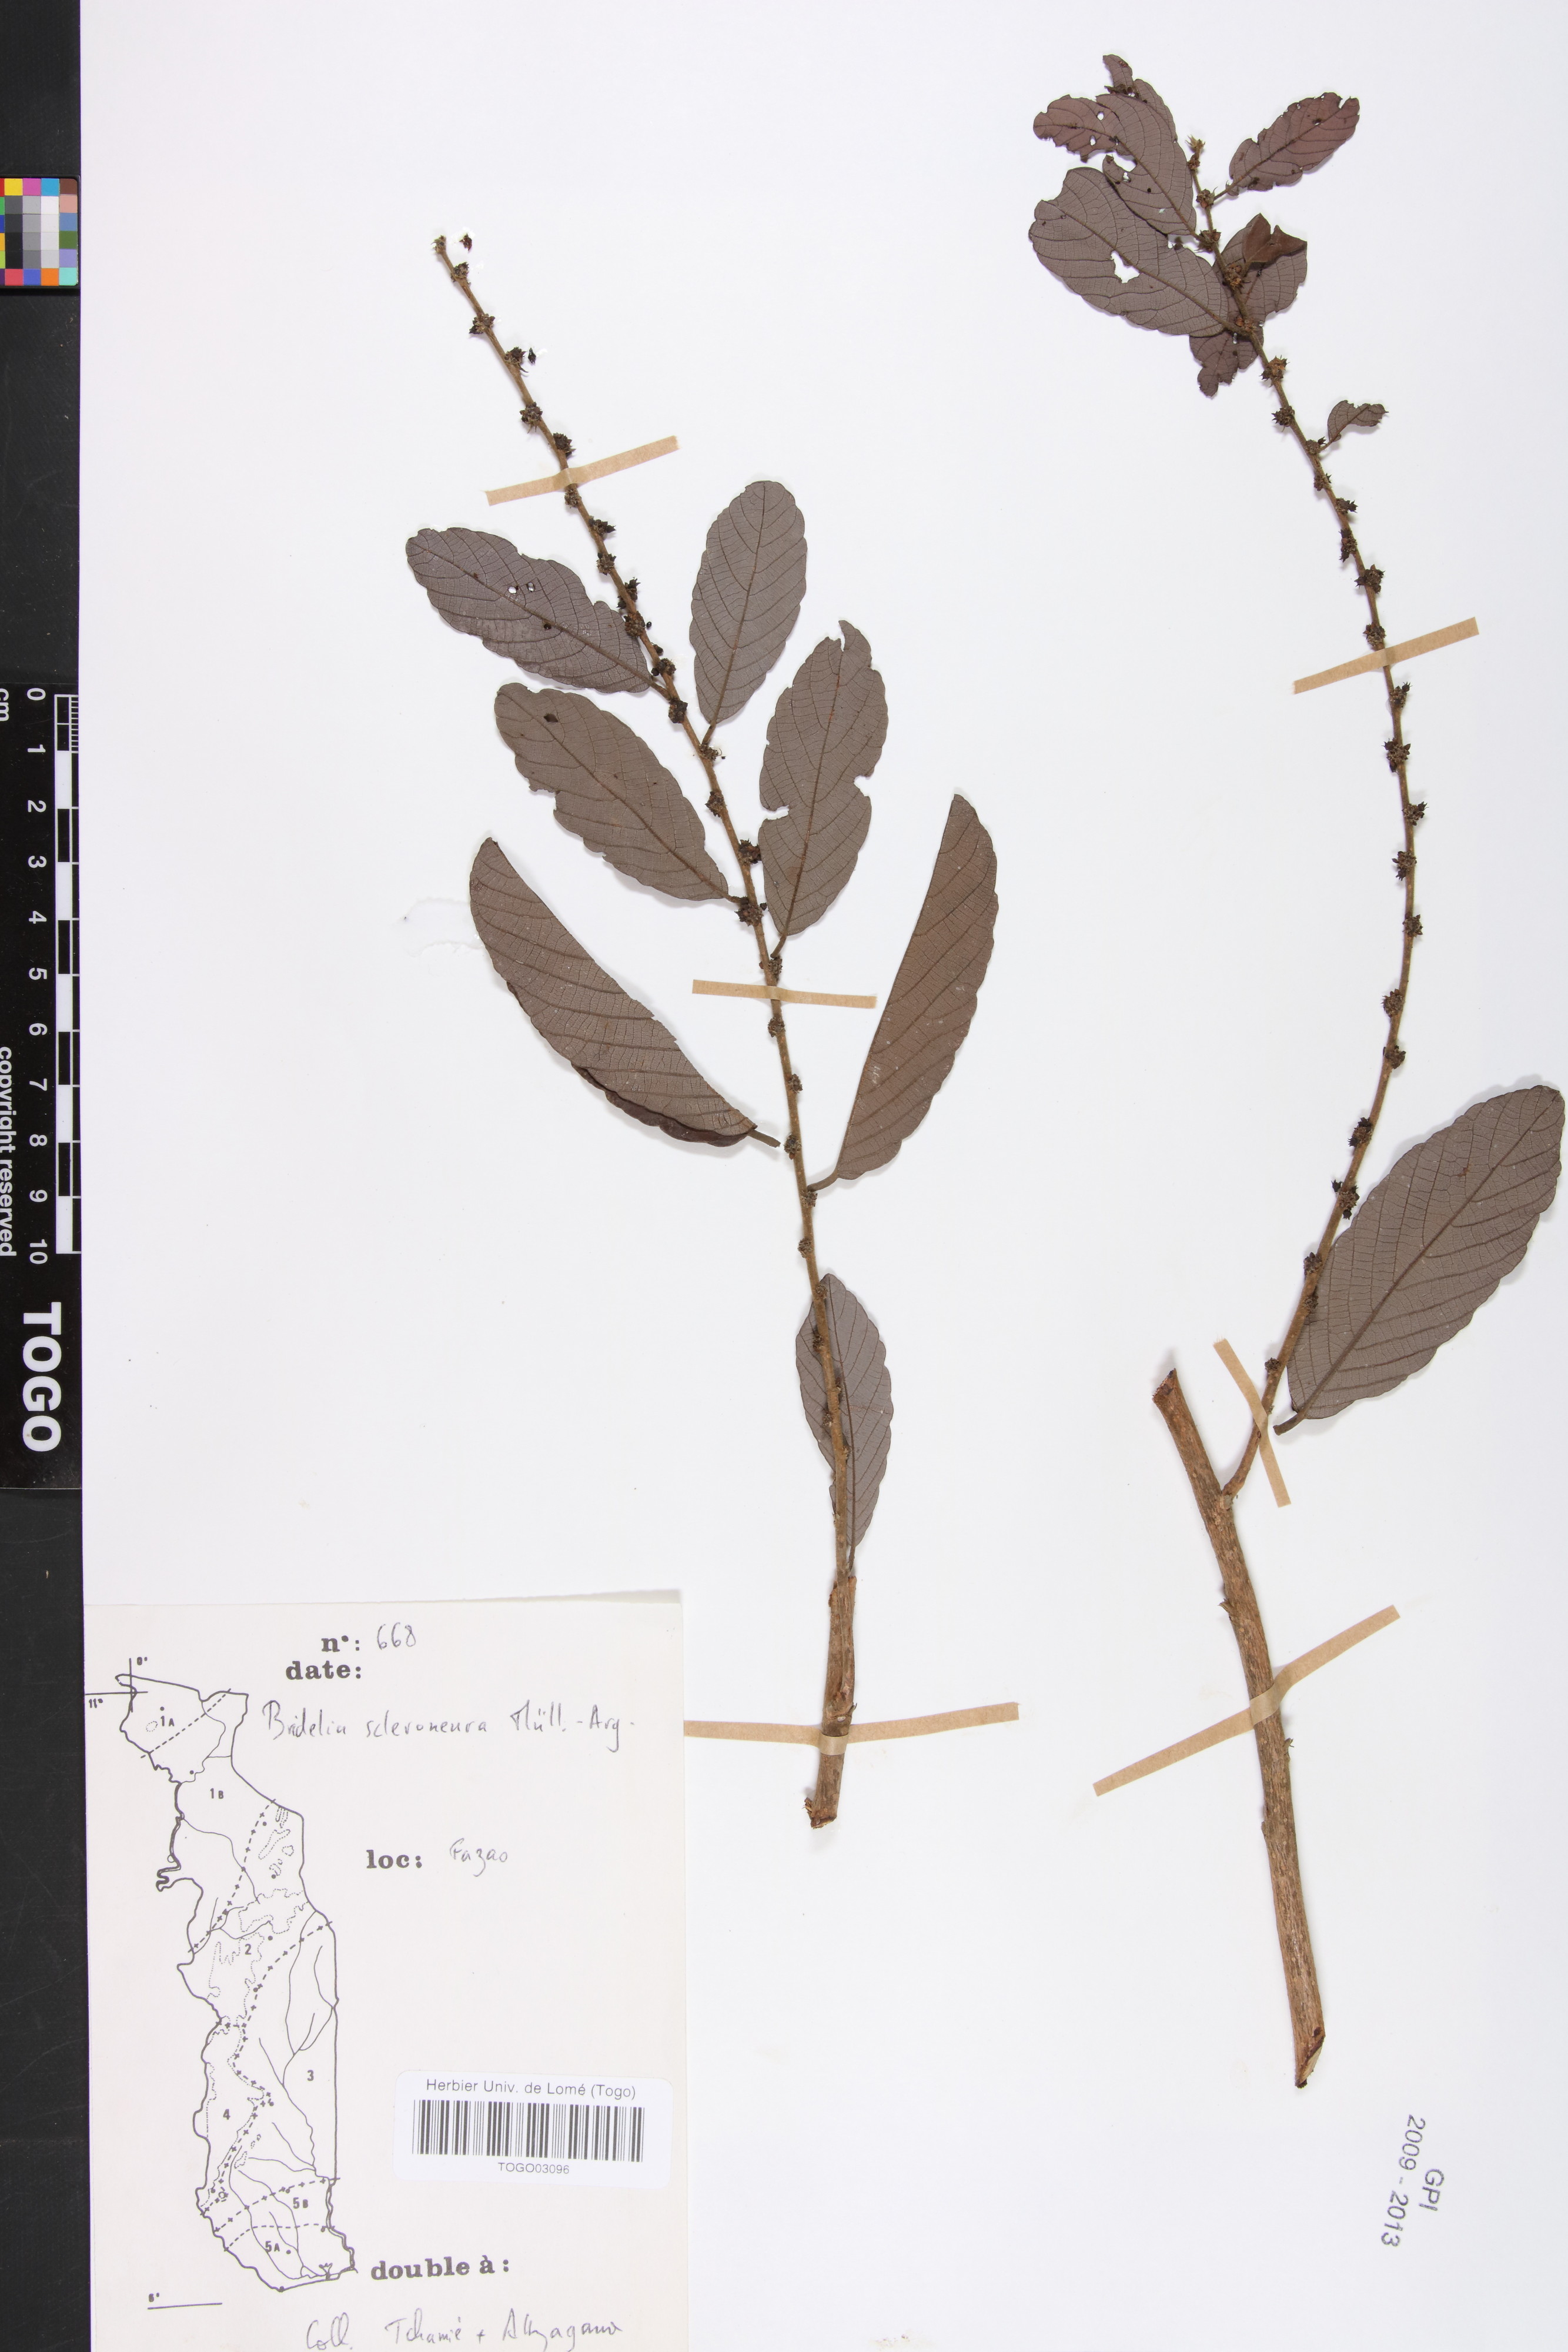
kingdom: Plantae
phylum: Tracheophyta
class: Magnoliopsida
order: Malpighiales
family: Phyllanthaceae
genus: Bridelia
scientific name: Bridelia scleroneura
